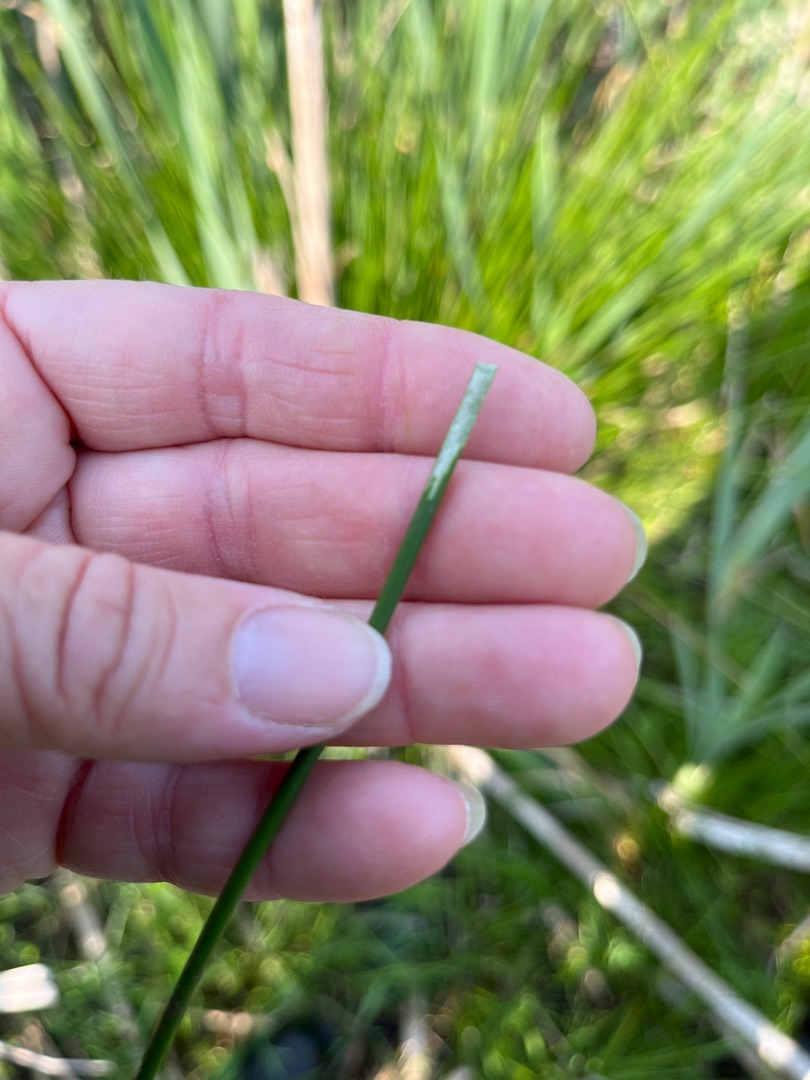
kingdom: Plantae
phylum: Tracheophyta
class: Liliopsida
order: Poales
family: Juncaceae
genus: Juncus
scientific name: Juncus effusus
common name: Lyse-siv
